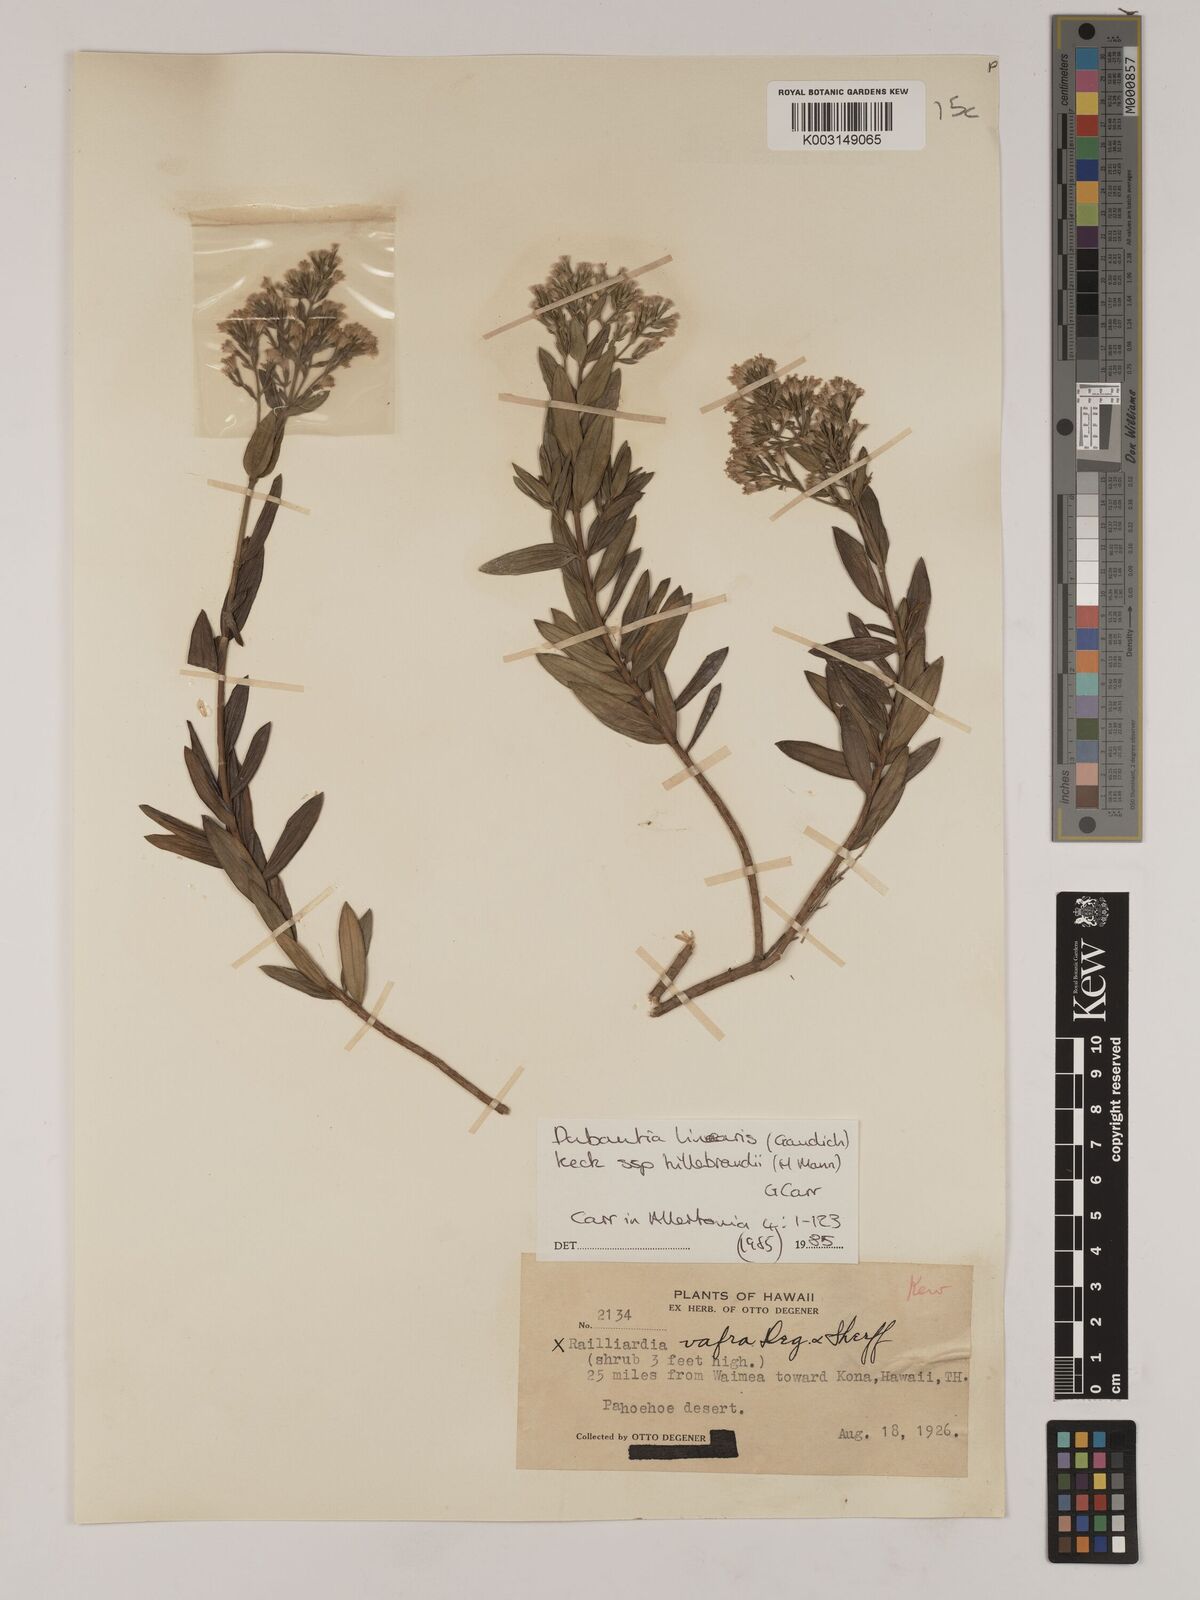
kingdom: Plantae
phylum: Tracheophyta
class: Magnoliopsida
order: Asterales
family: Asteraceae
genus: Dubautia
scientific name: Dubautia linearis
